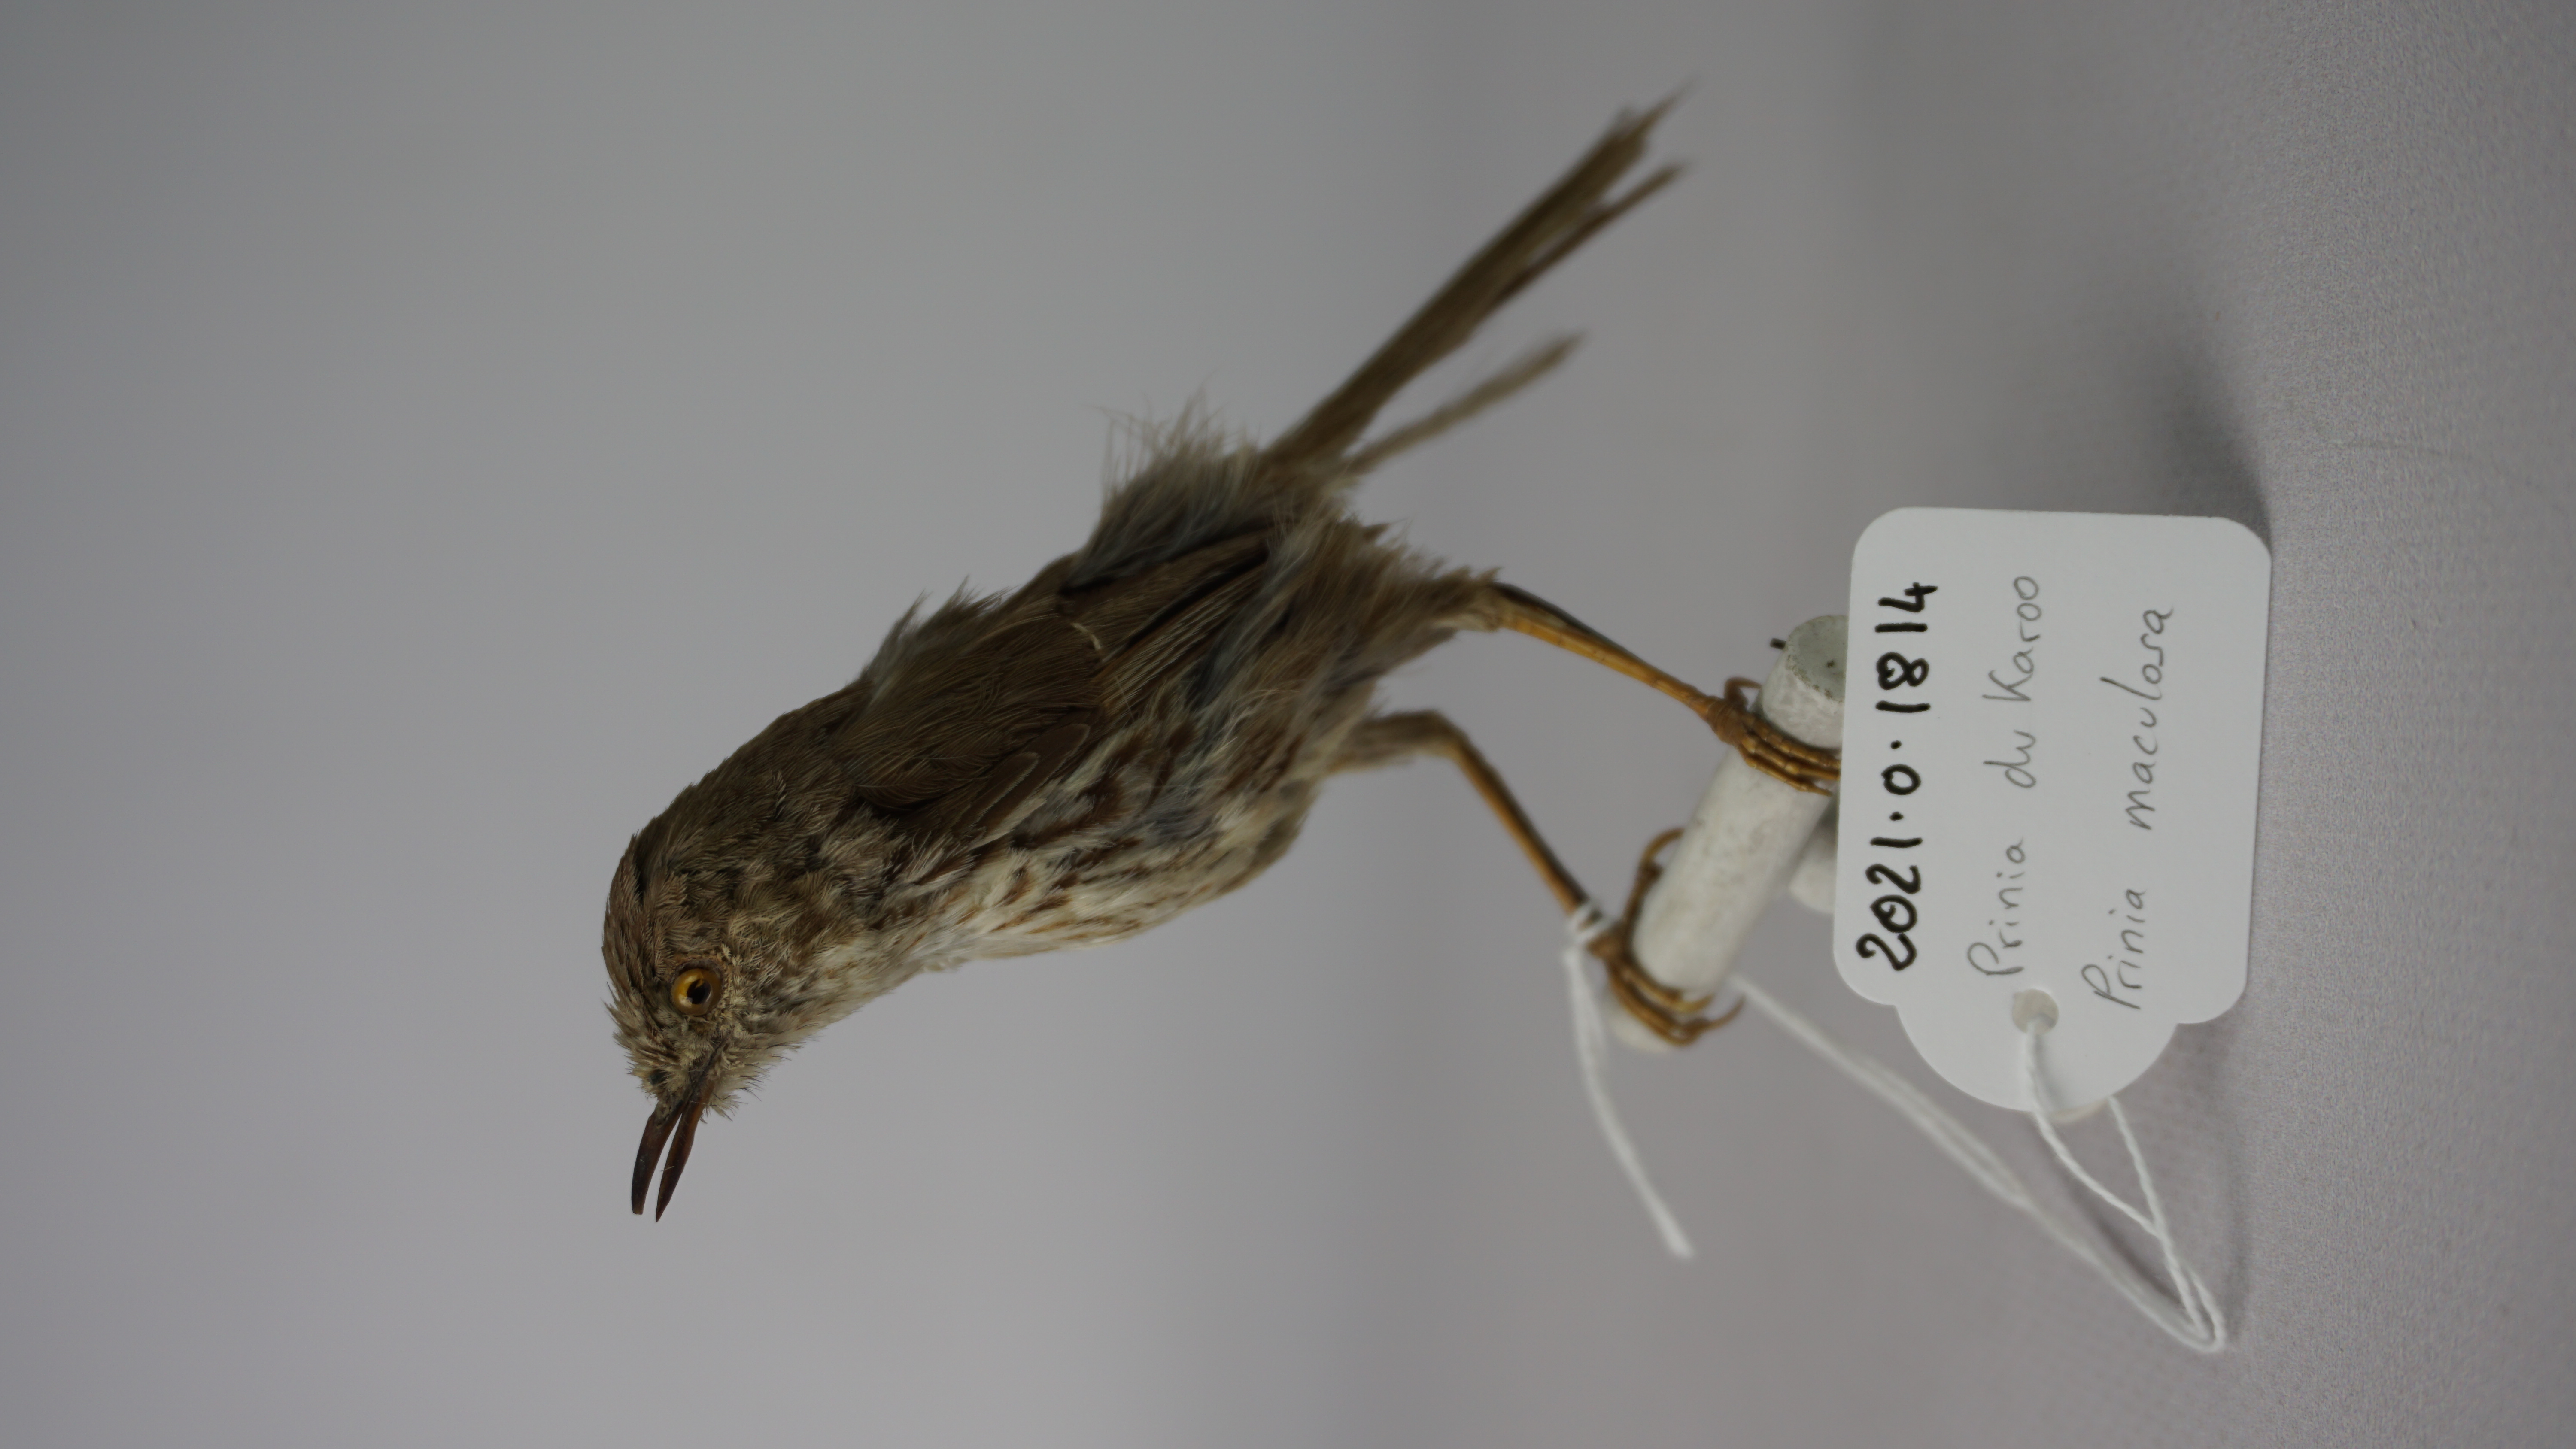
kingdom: Animalia
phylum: Chordata
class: Aves
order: Passeriformes
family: Cisticolidae
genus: Prinia
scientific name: Prinia maculosa
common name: Karoo prinia
